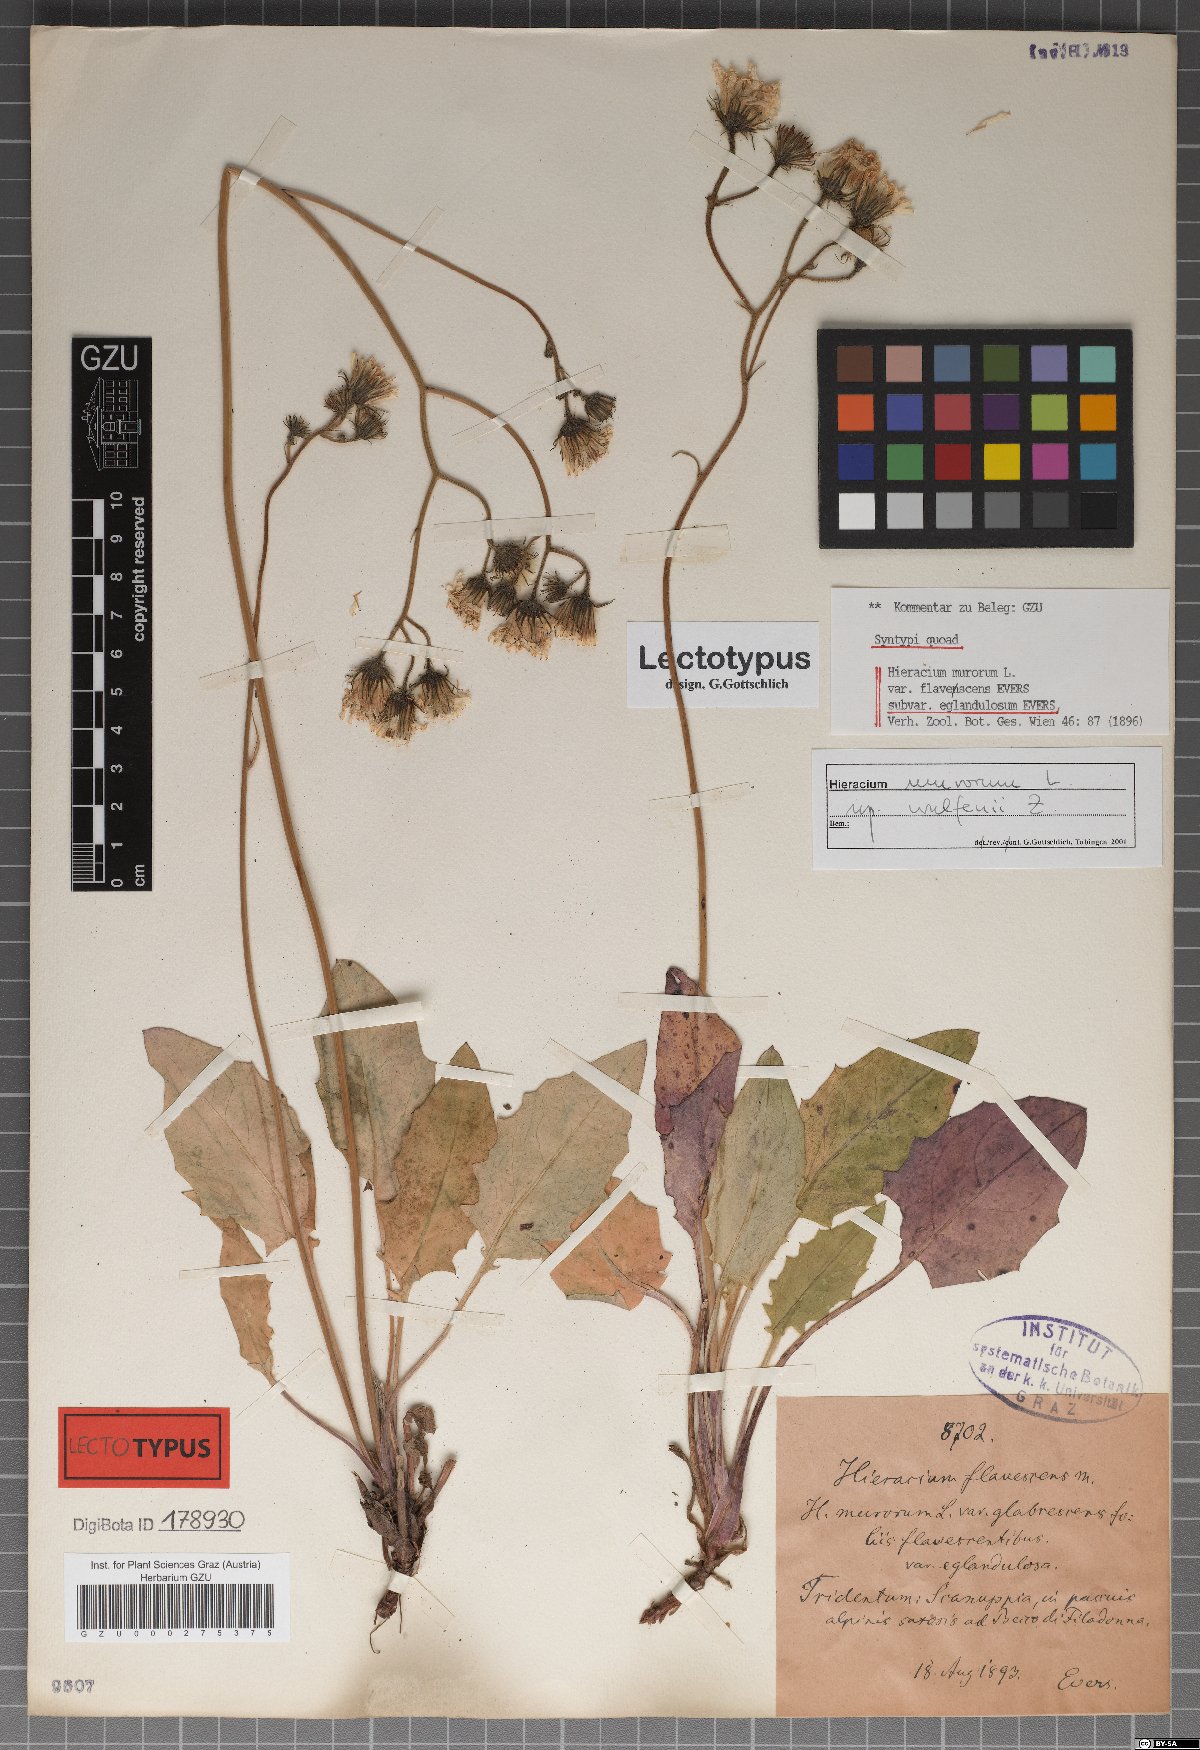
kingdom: Plantae
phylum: Tracheophyta
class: Magnoliopsida
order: Asterales
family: Asteraceae
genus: Hieracium
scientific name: Hieracium murorum
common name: Wall hawkweed
